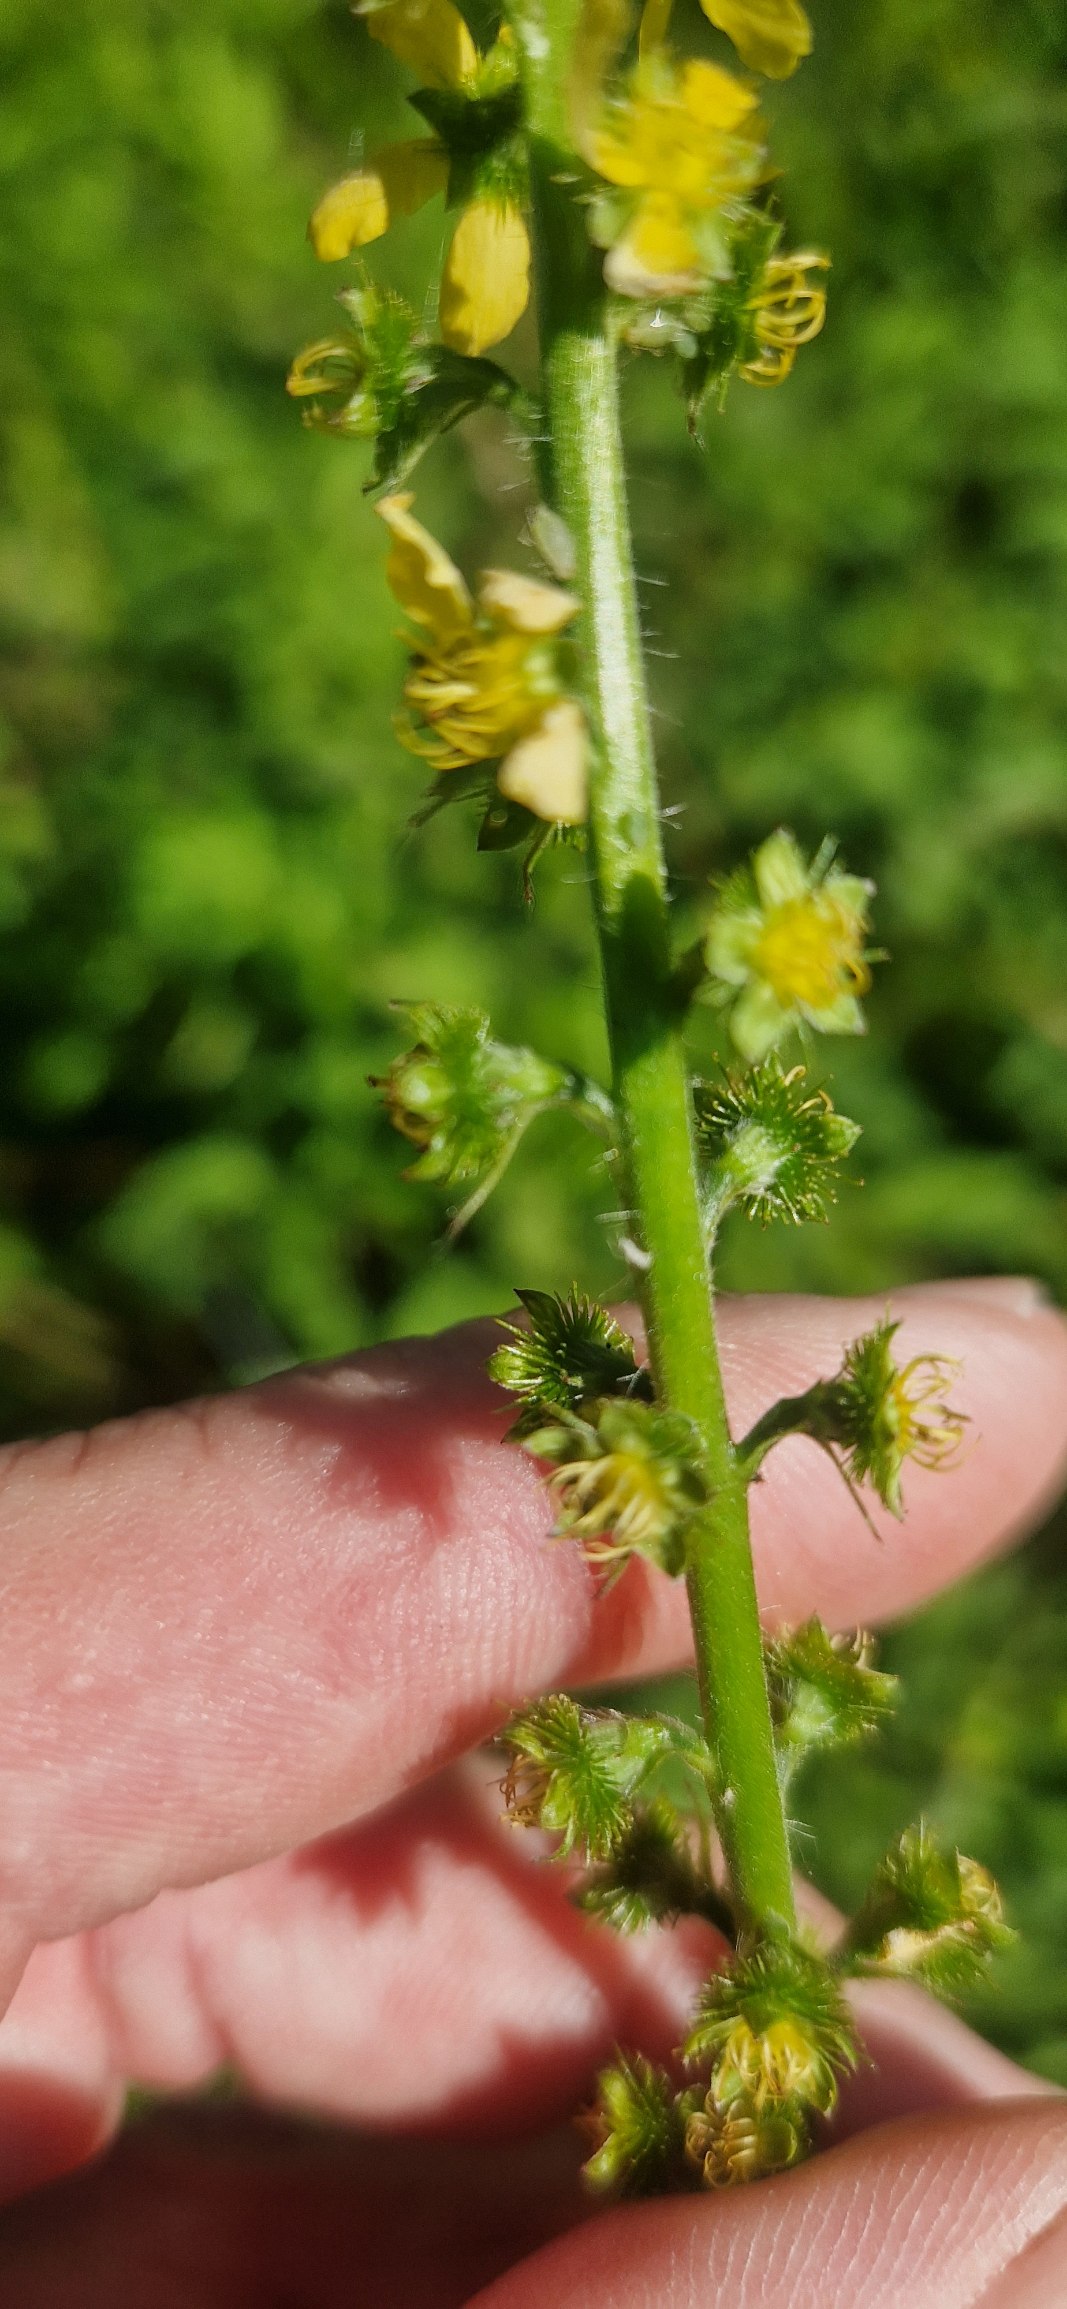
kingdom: Plantae
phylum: Tracheophyta
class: Magnoliopsida
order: Rosales
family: Rosaceae
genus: Agrimonia
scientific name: Agrimonia procera
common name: Vellugtende agermåne
